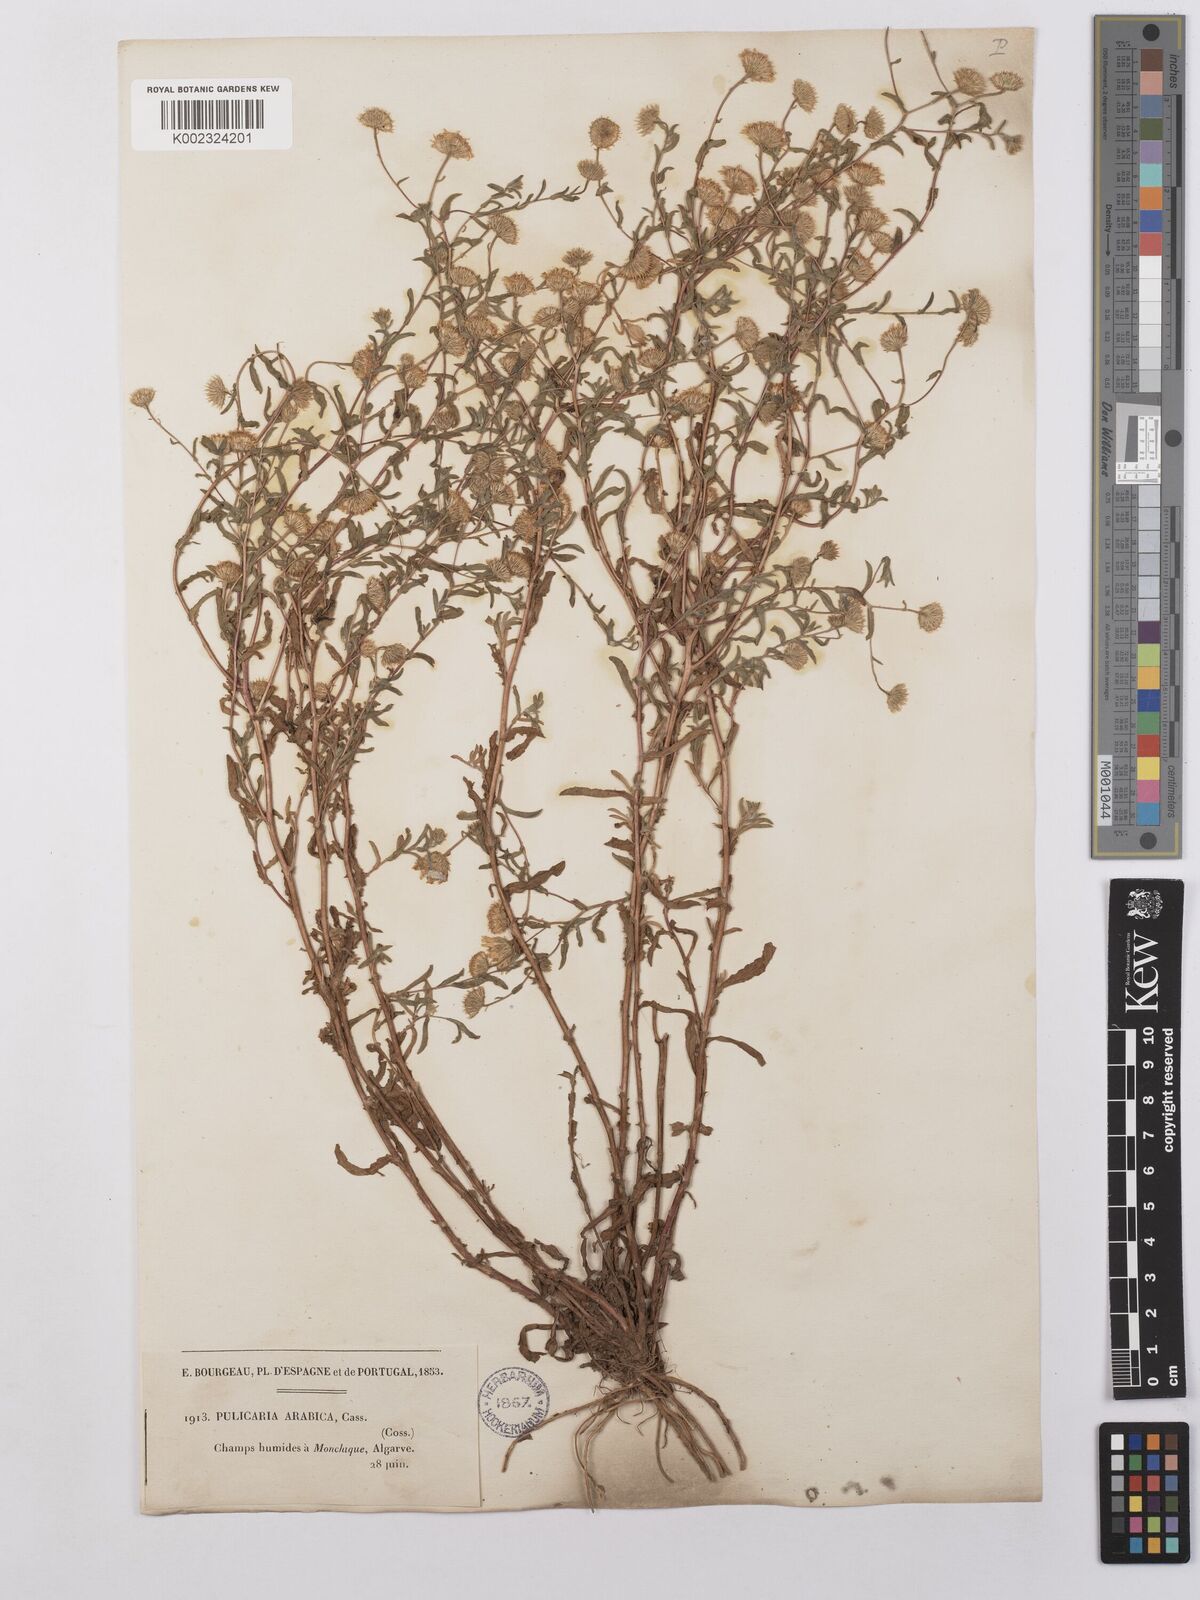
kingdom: Plantae
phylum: Tracheophyta
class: Magnoliopsida
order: Asterales
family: Asteraceae
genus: Pulicaria
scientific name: Pulicaria arabica
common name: Ladies' false fleabane
